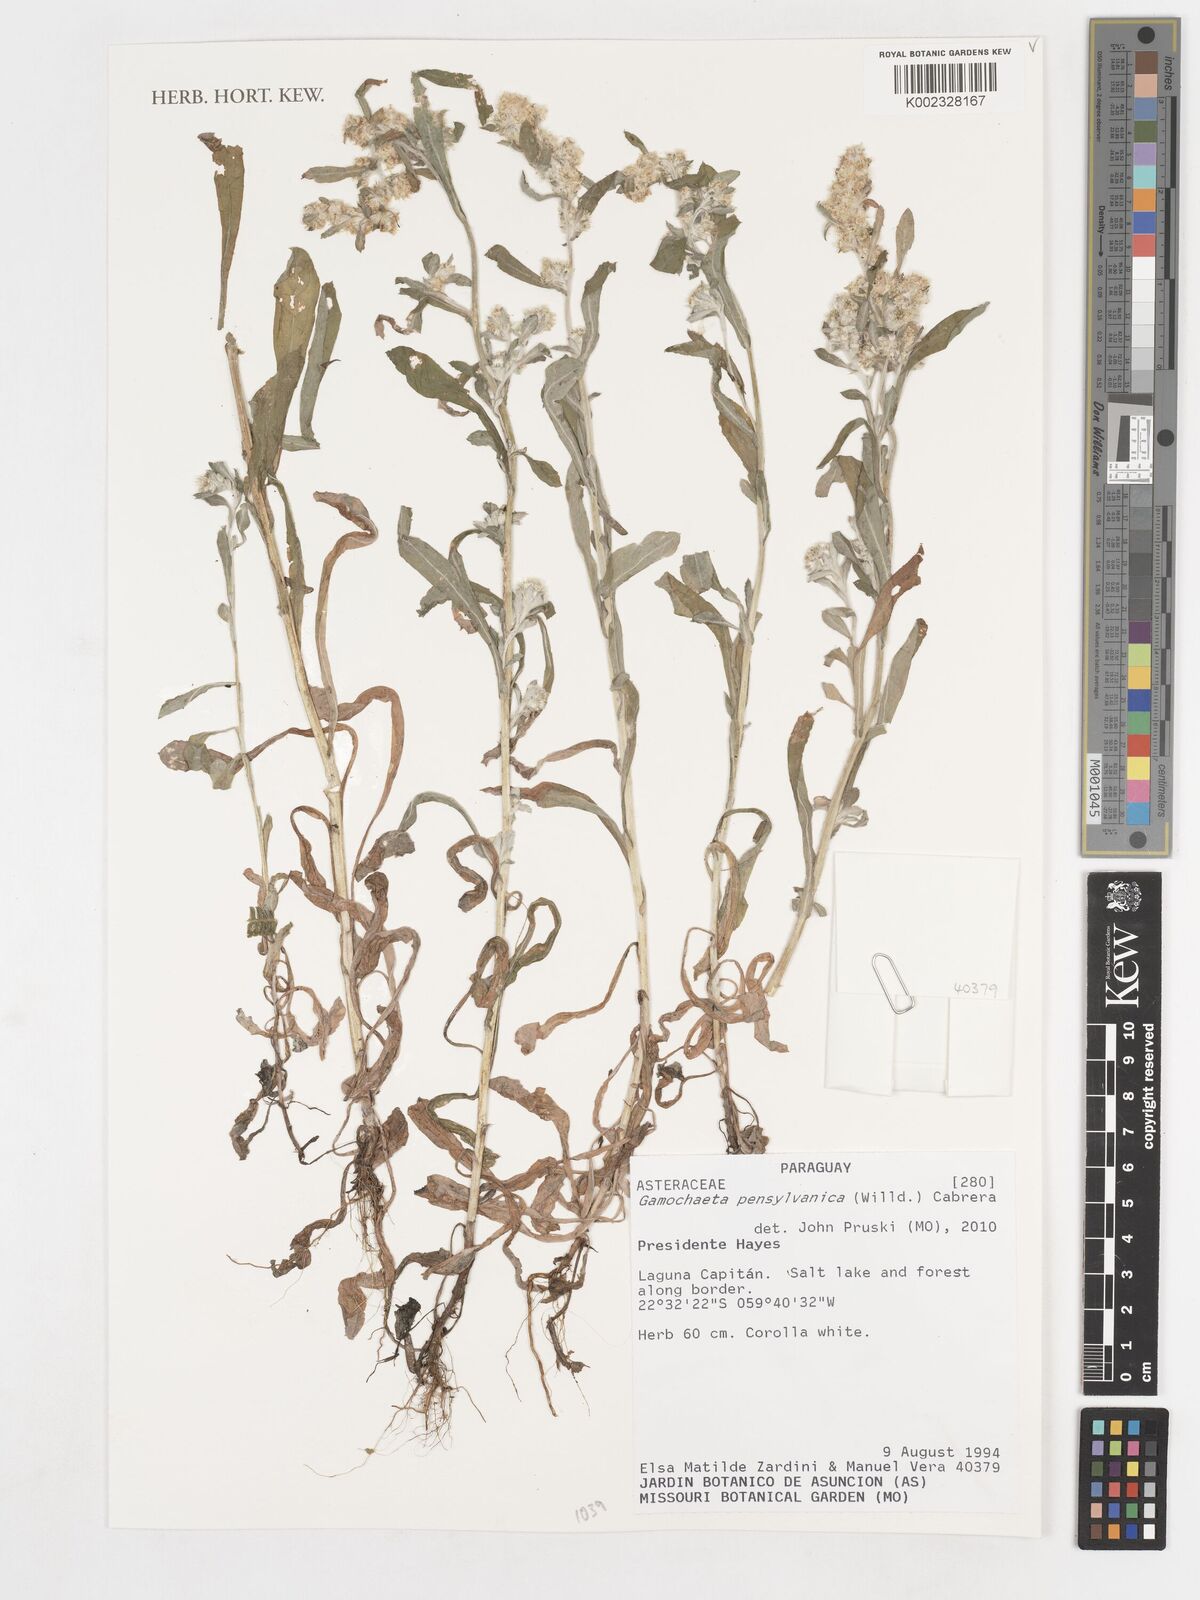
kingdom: Plantae
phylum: Tracheophyta
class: Magnoliopsida
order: Asterales
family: Asteraceae
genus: Gamochaeta
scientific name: Gamochaeta pensylvanica
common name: Pennsylvania everlasting
